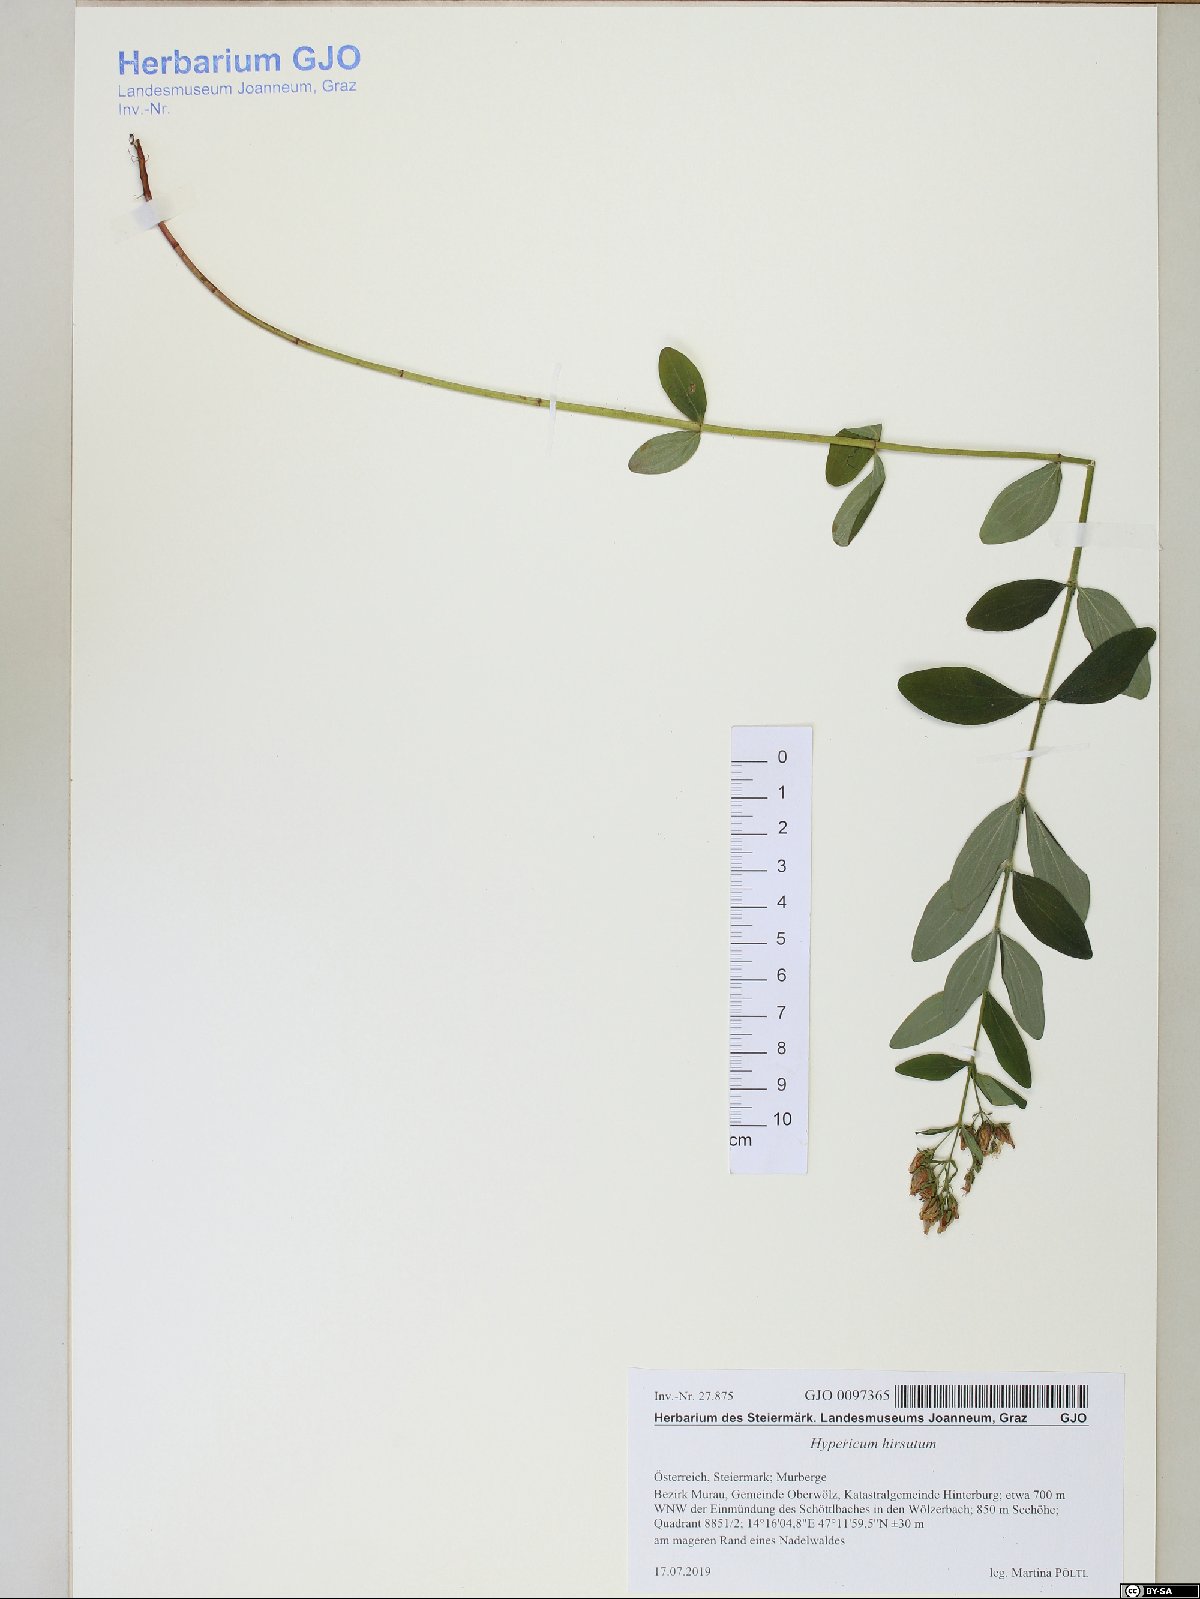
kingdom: Plantae
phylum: Tracheophyta
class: Magnoliopsida
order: Malpighiales
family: Hypericaceae
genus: Hypericum
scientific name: Hypericum hirsutum
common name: Hairy st. john's-wort
